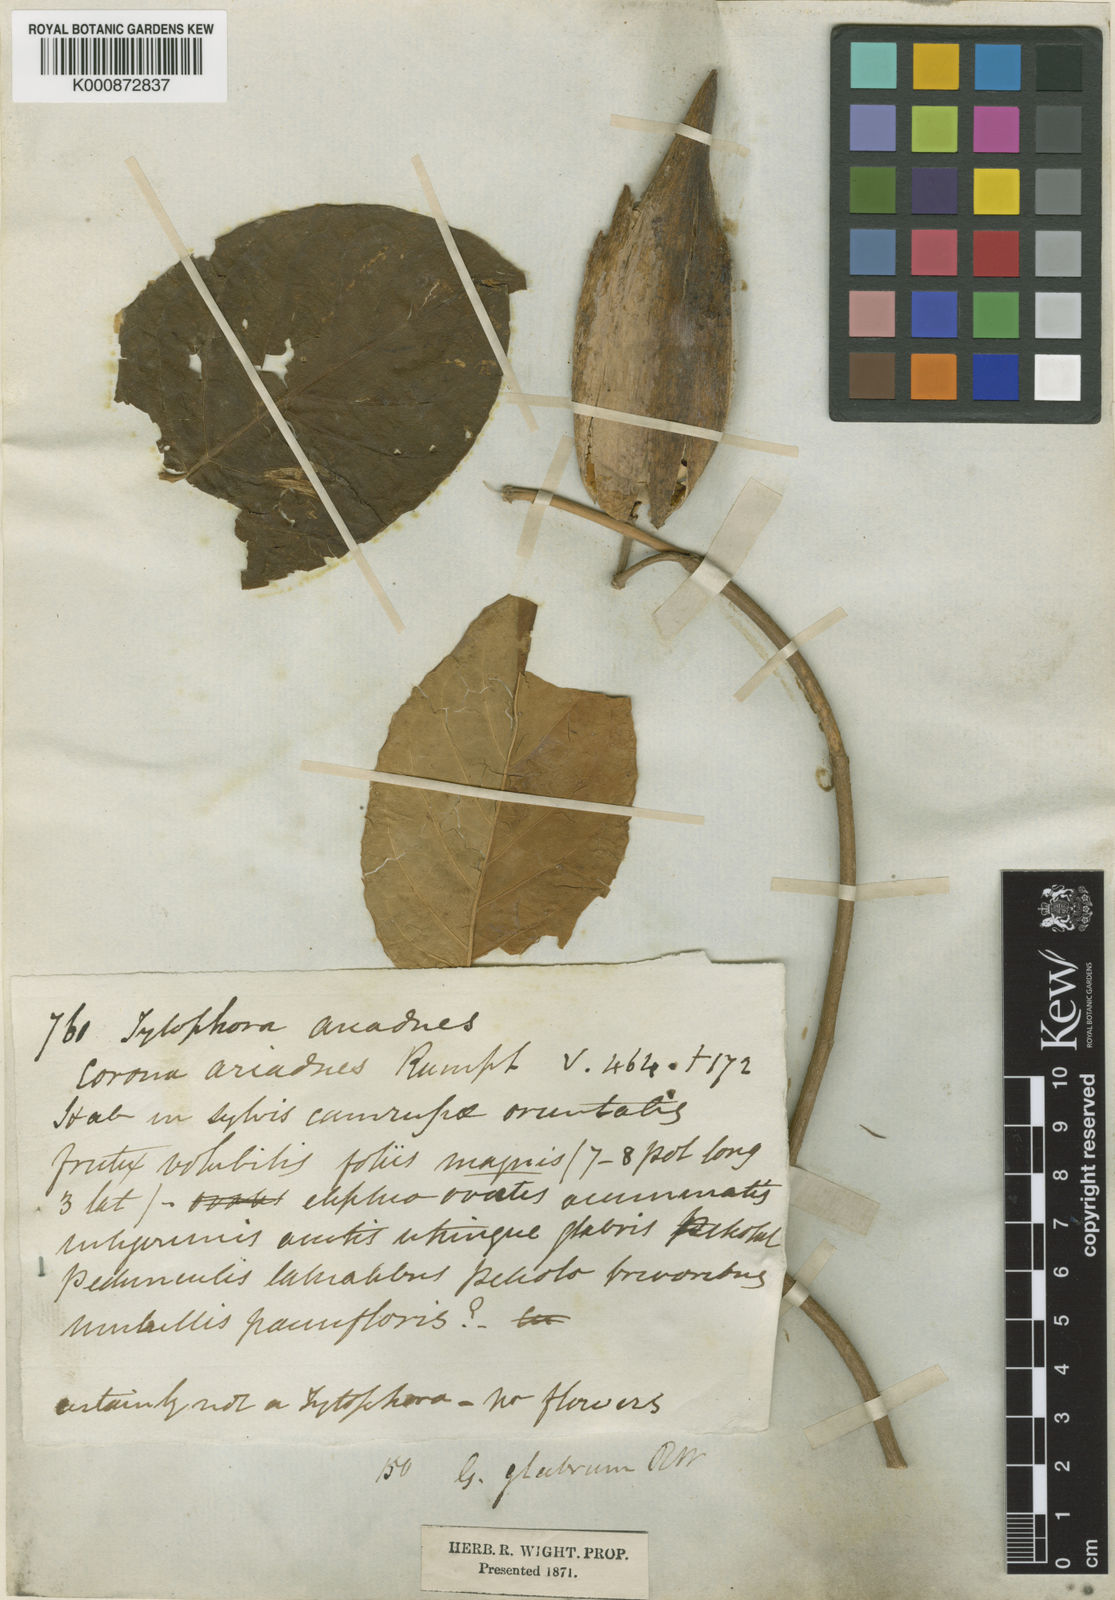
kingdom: Plantae
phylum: Tracheophyta
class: Magnoliopsida
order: Gentianales
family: Apocynaceae
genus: Gymnema
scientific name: Gymnema glabrum
